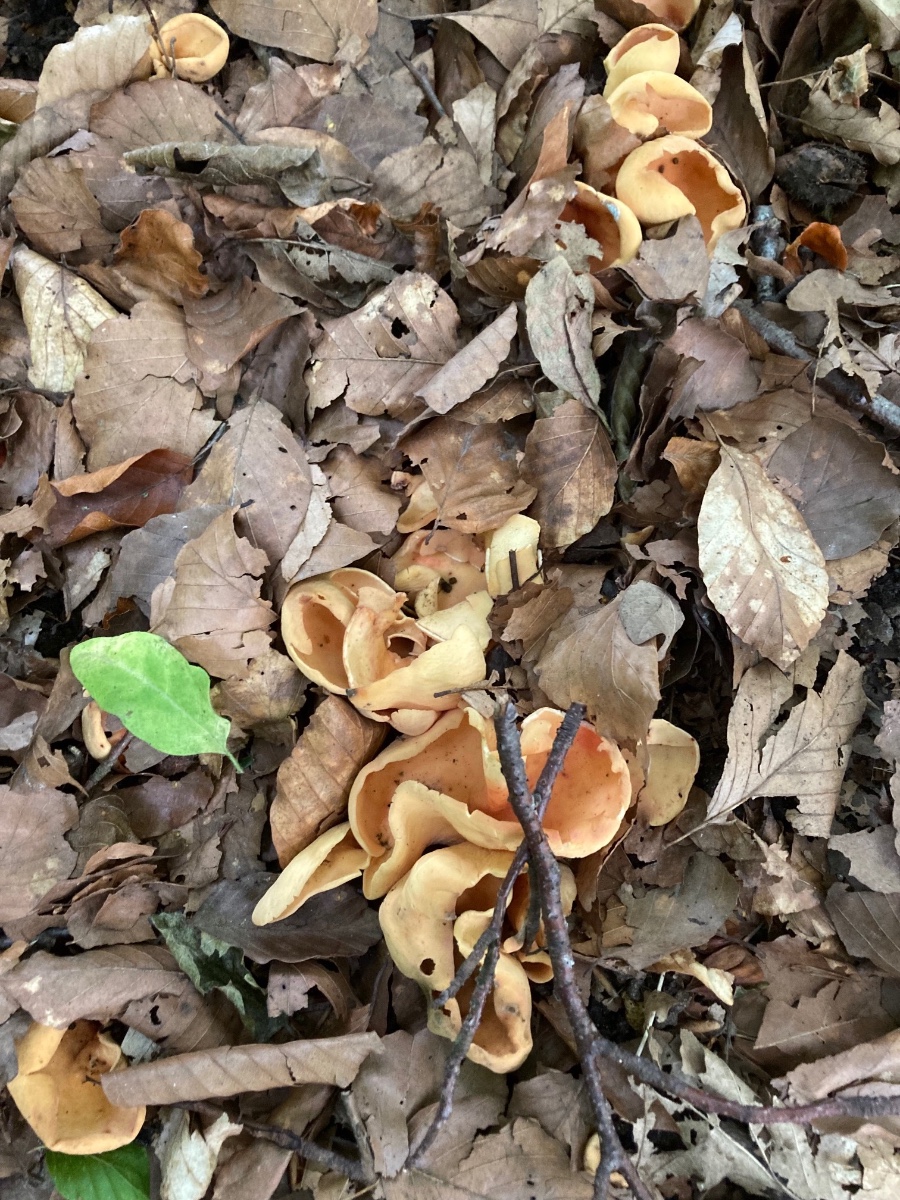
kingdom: Fungi
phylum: Ascomycota
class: Pezizomycetes
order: Pezizales
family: Otideaceae
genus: Otidea
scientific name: Otidea onotica
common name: æsel-ørebæger
